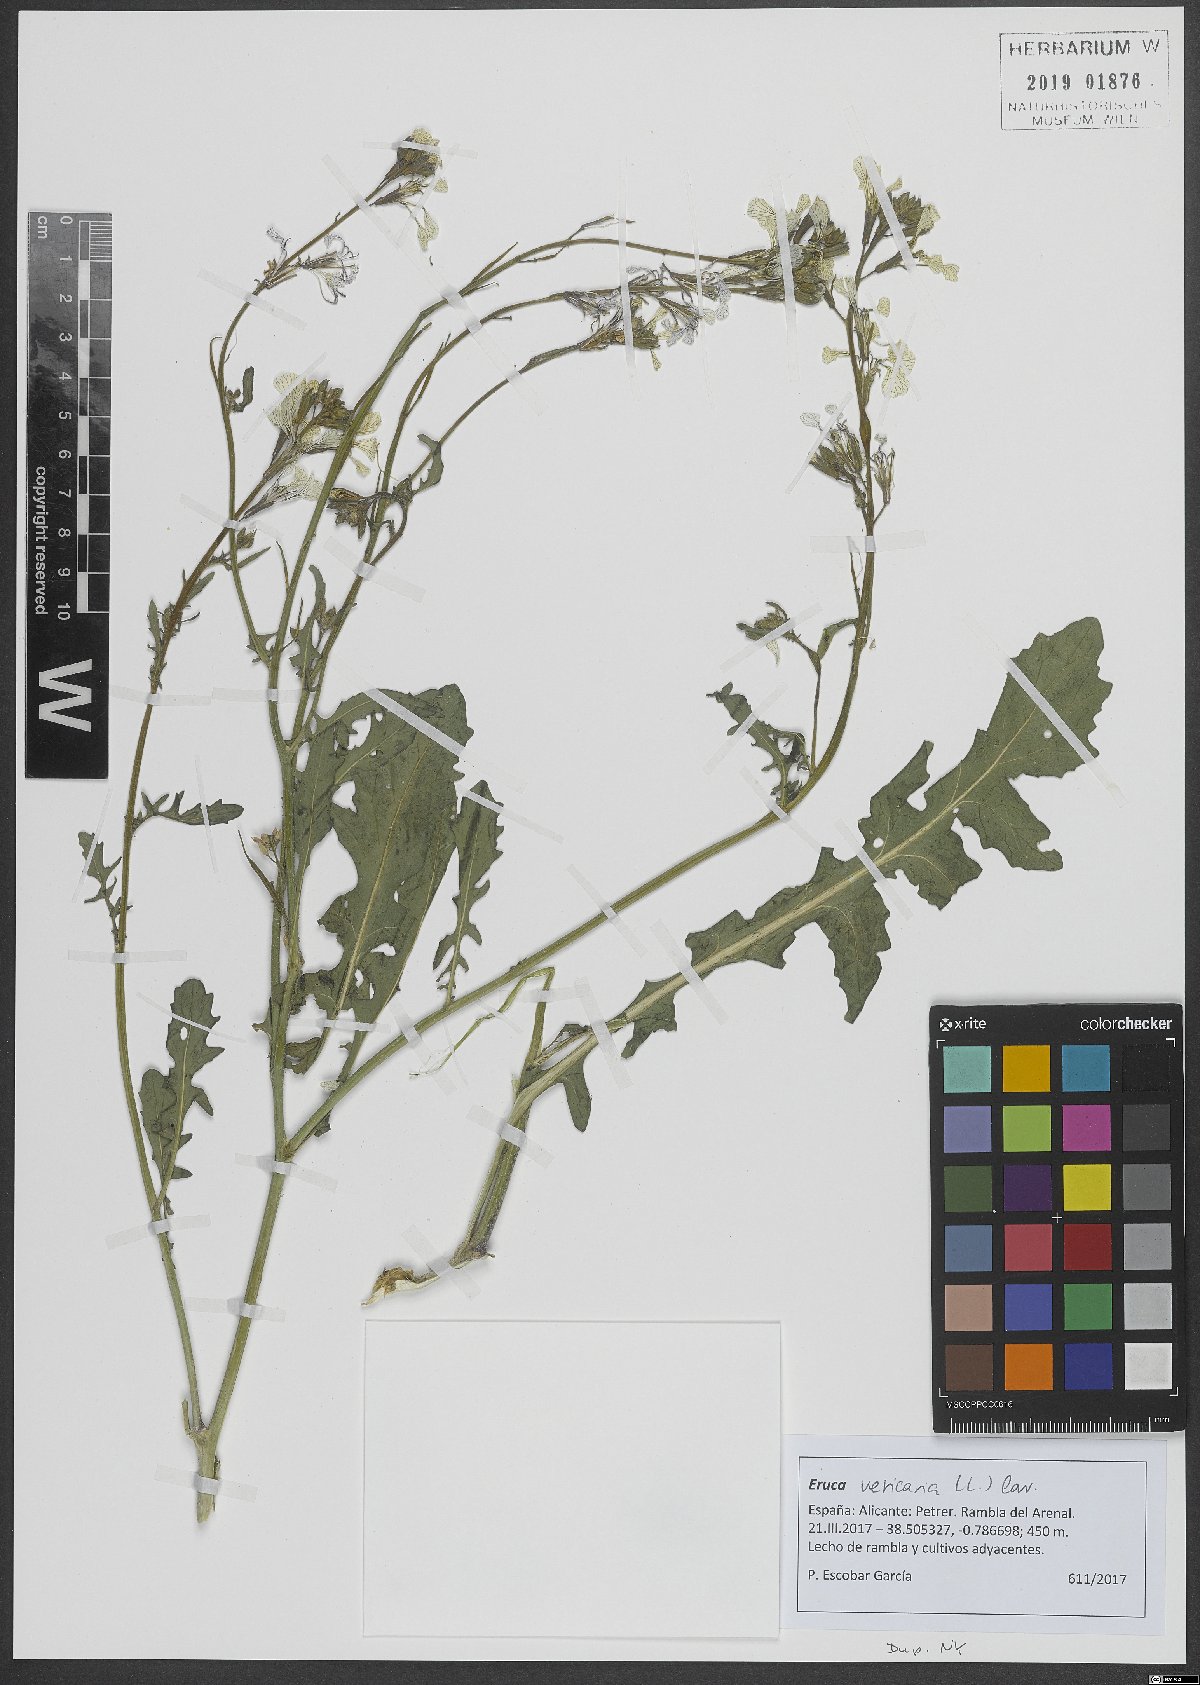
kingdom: Plantae
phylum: Tracheophyta
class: Magnoliopsida
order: Brassicales
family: Brassicaceae
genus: Eruca
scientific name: Eruca vesicaria
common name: Garden rocket
